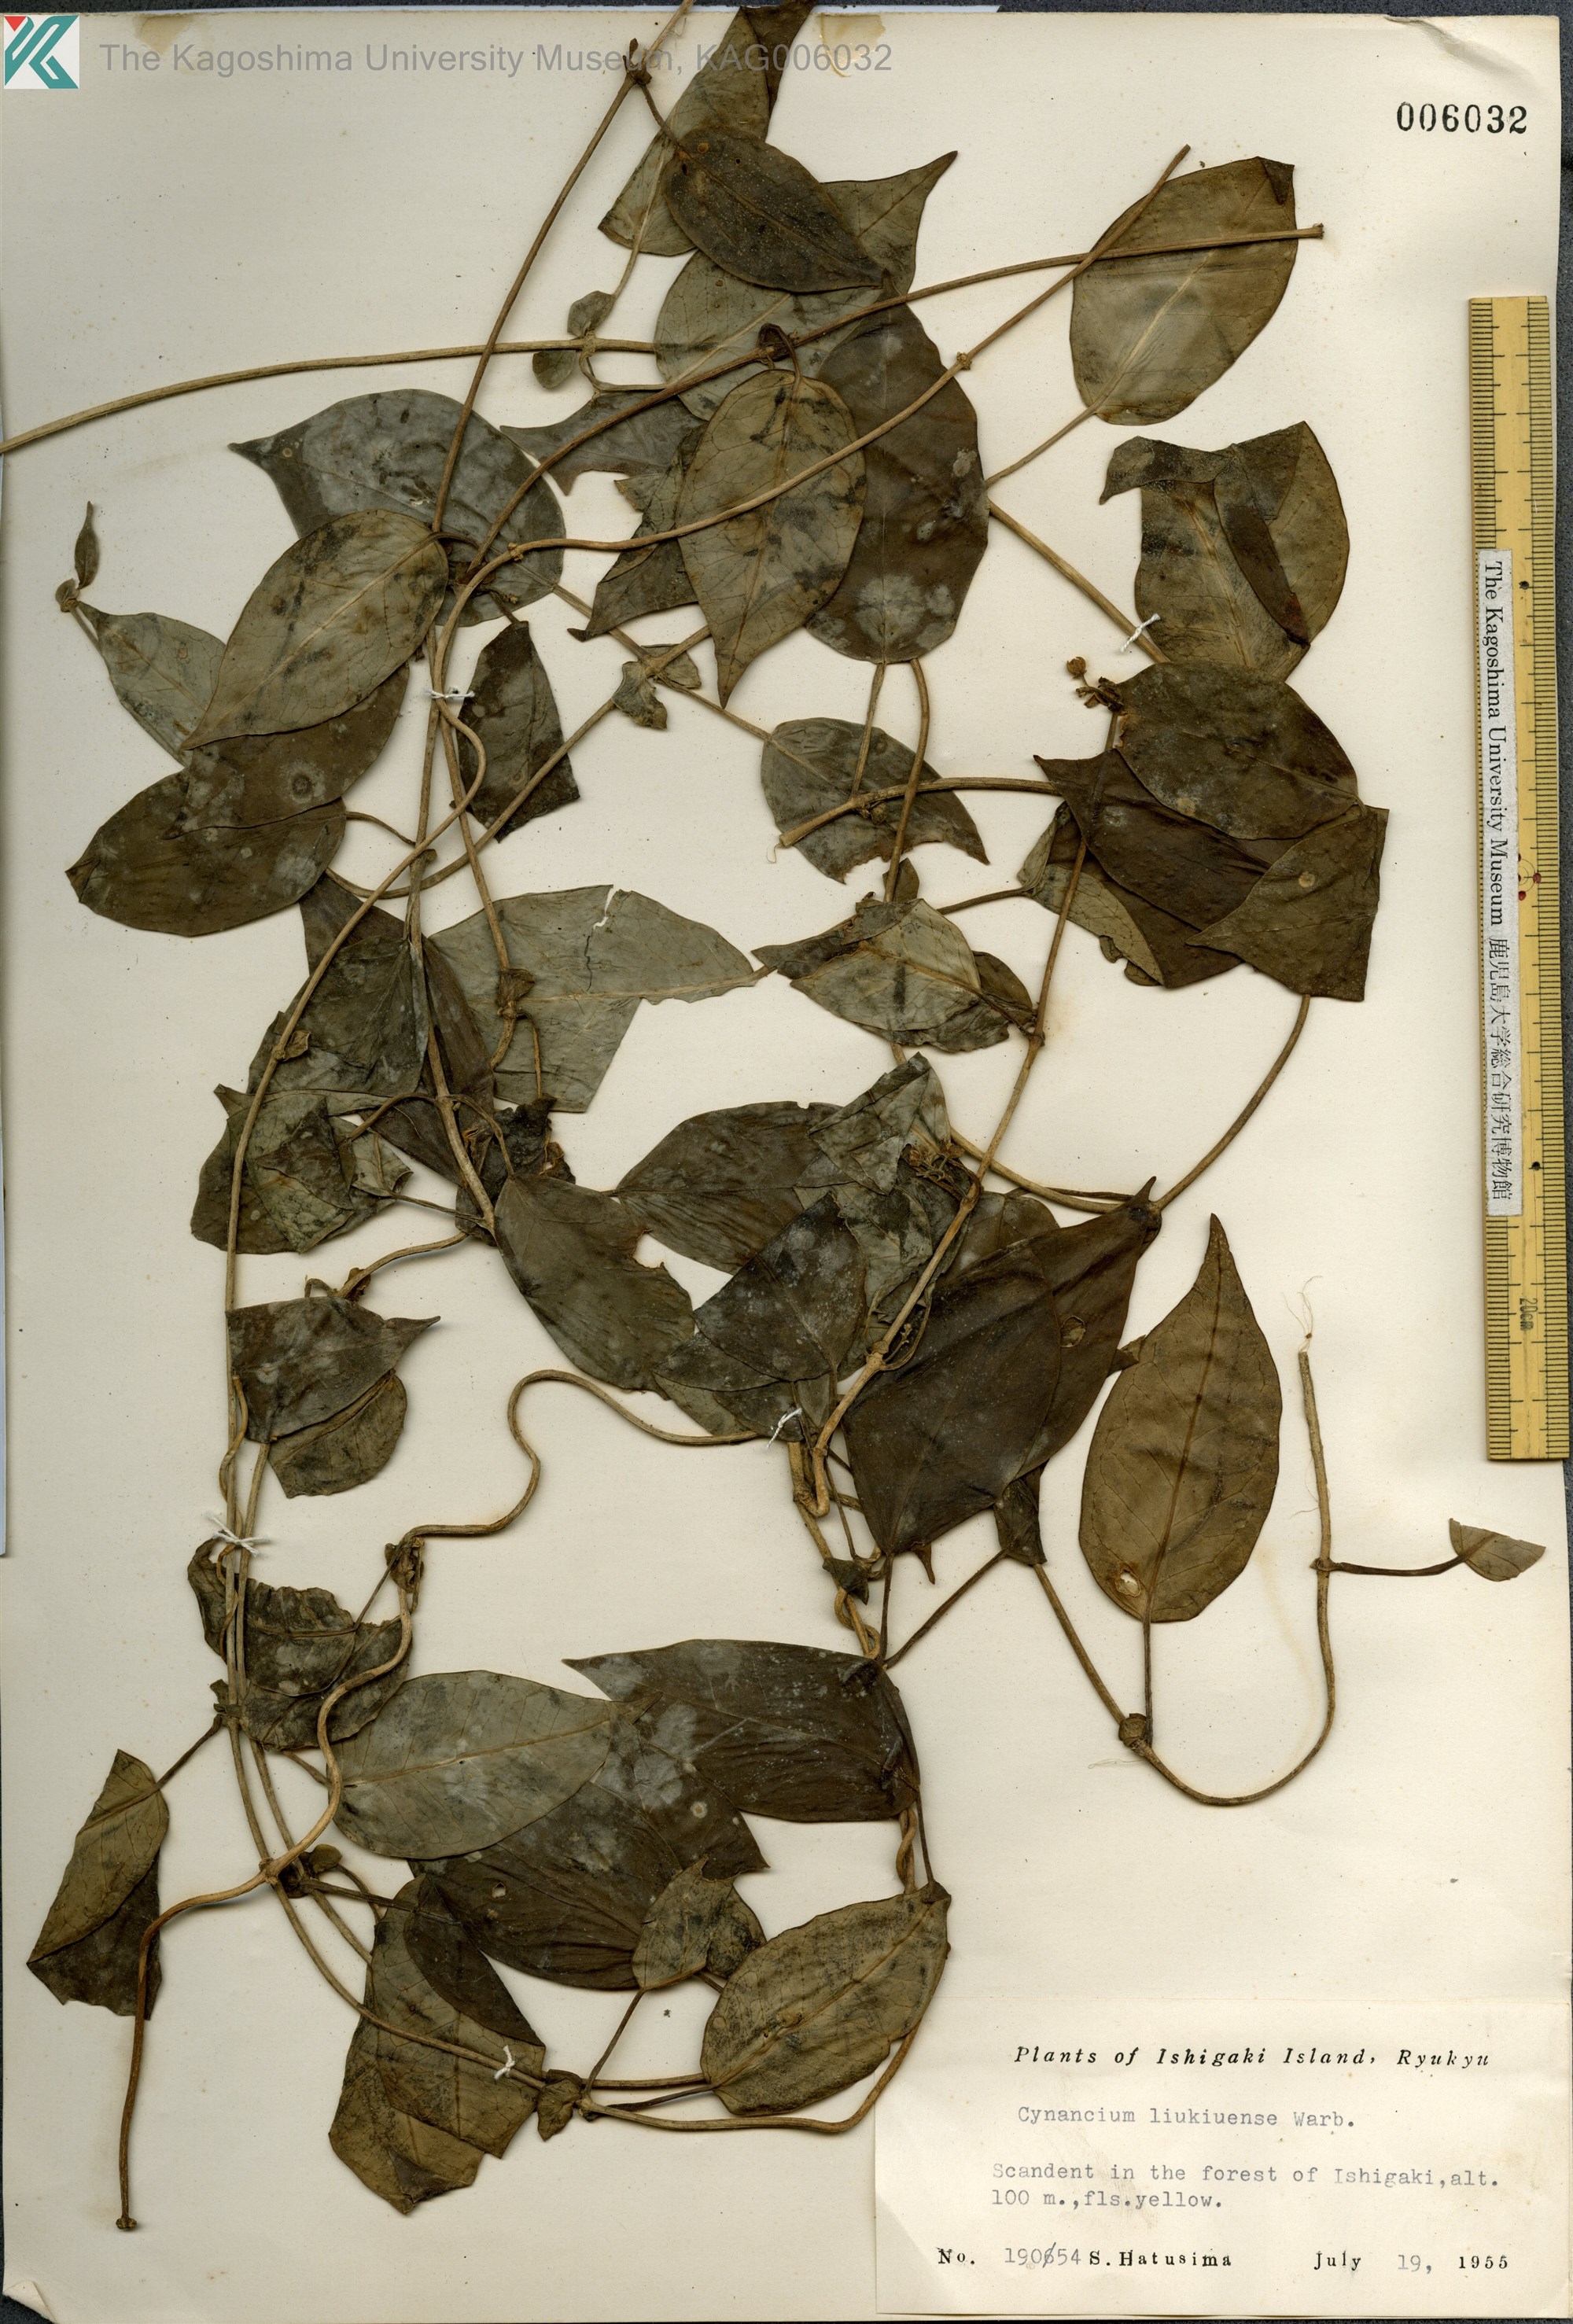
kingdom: Plantae
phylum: Tracheophyta
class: Magnoliopsida
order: Gentianales
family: Apocynaceae
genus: Cynanchum
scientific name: Cynanchum liukiuense
